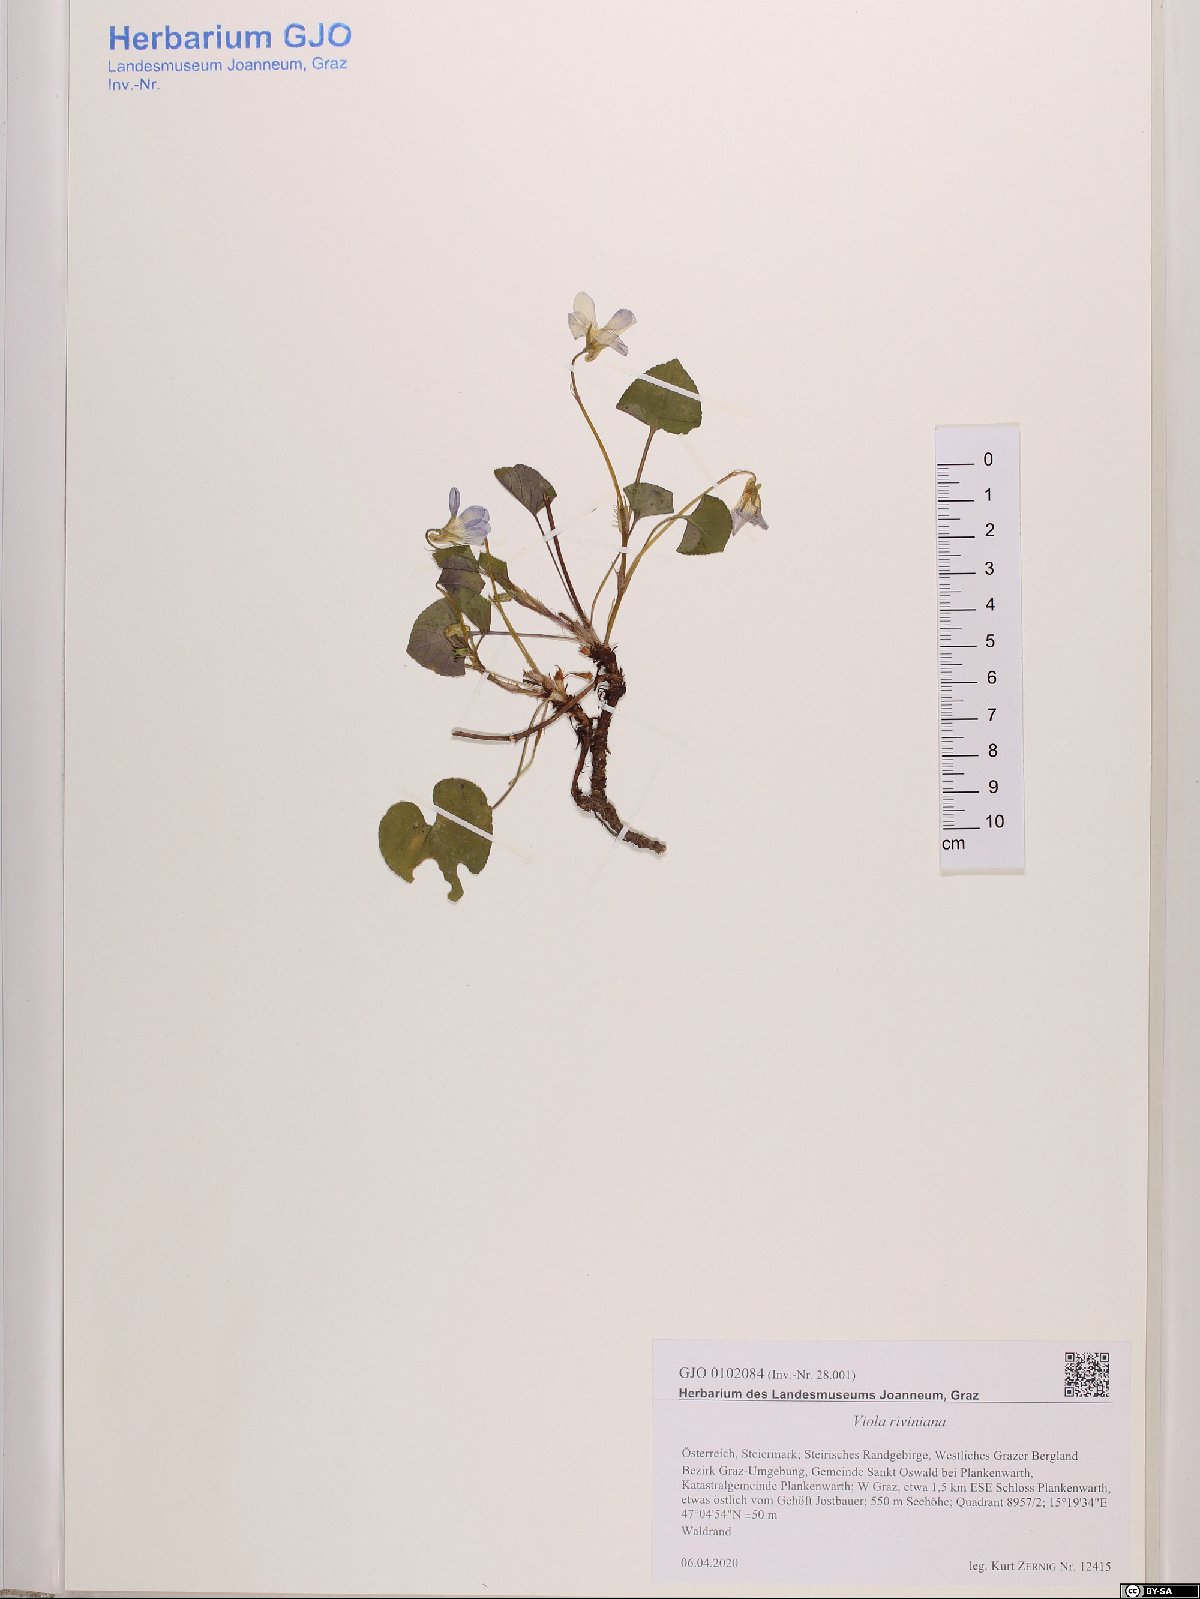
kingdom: Plantae
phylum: Tracheophyta
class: Magnoliopsida
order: Malpighiales
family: Violaceae
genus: Viola
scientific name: Viola riviniana
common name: Common dog-violet
